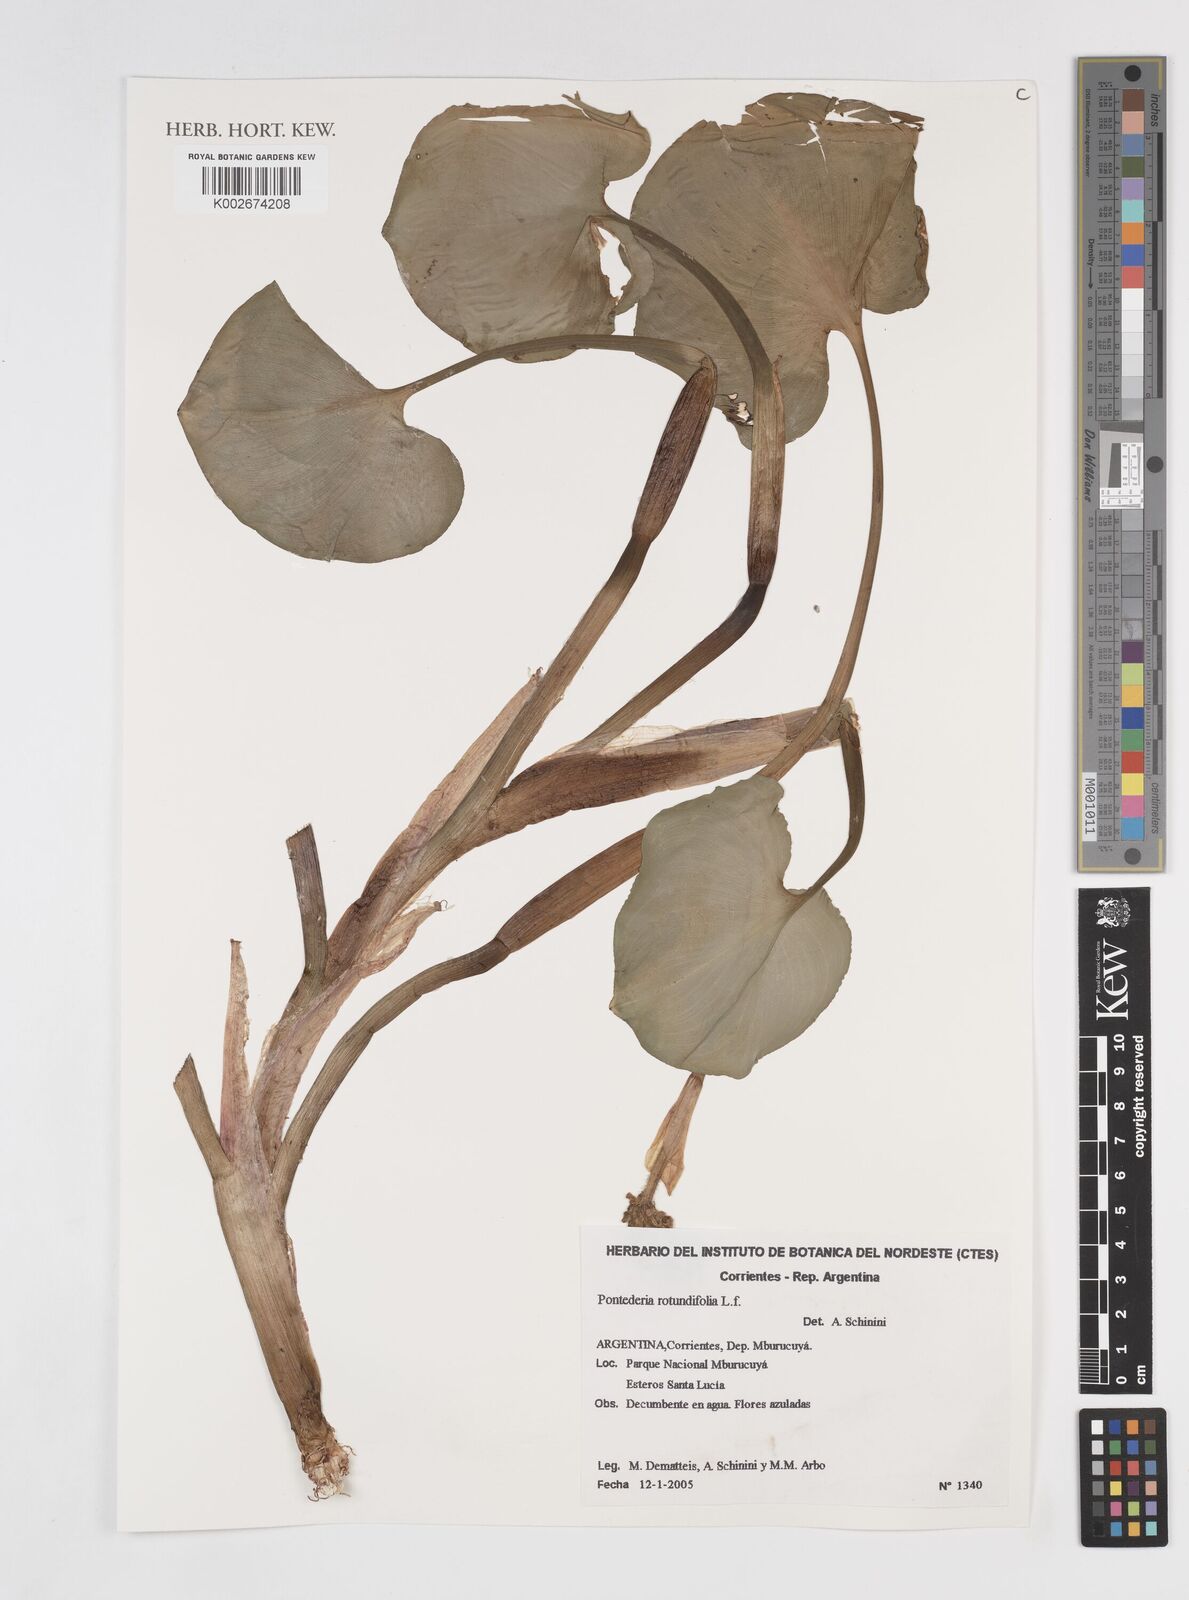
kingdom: Plantae
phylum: Tracheophyta
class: Liliopsida
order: Commelinales
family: Pontederiaceae
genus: Pontederia
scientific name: Pontederia rotundifolia
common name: Tropical pickerel-weed
